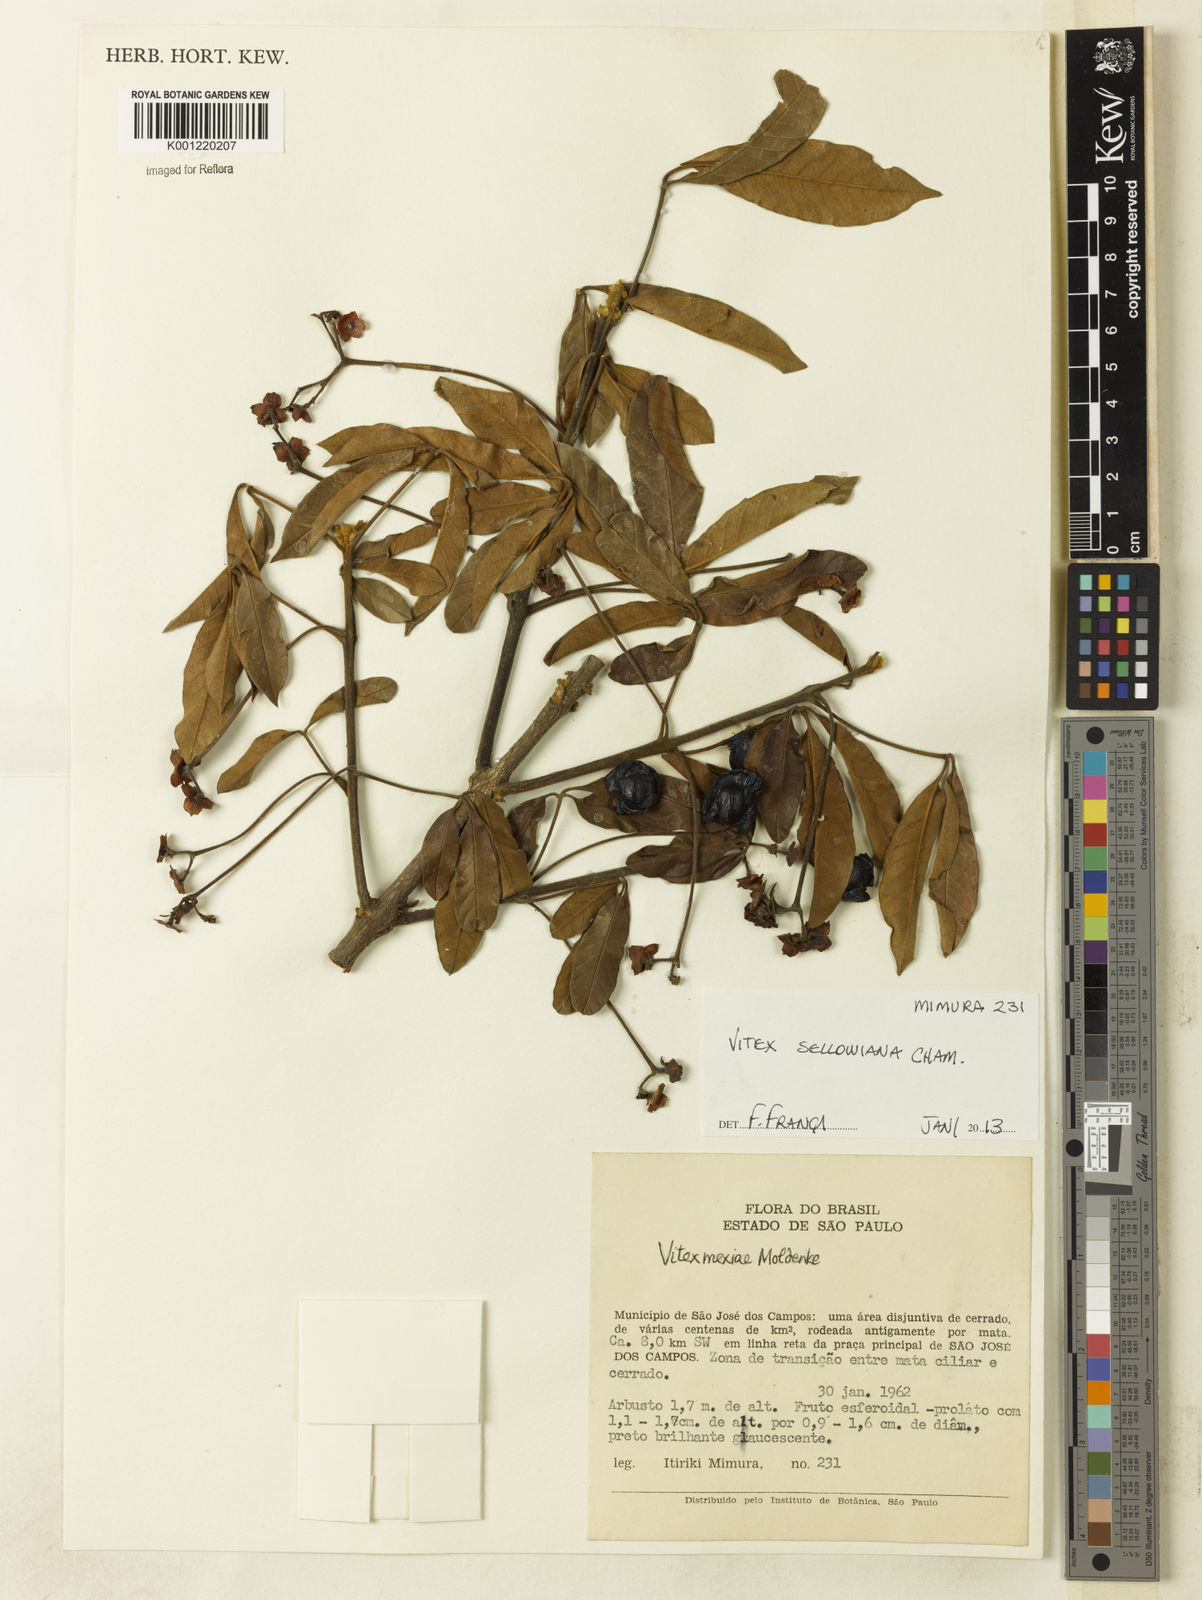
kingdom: Plantae
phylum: Tracheophyta
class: Magnoliopsida
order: Lamiales
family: Lamiaceae
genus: Vitex
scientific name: Vitex sellowiana
